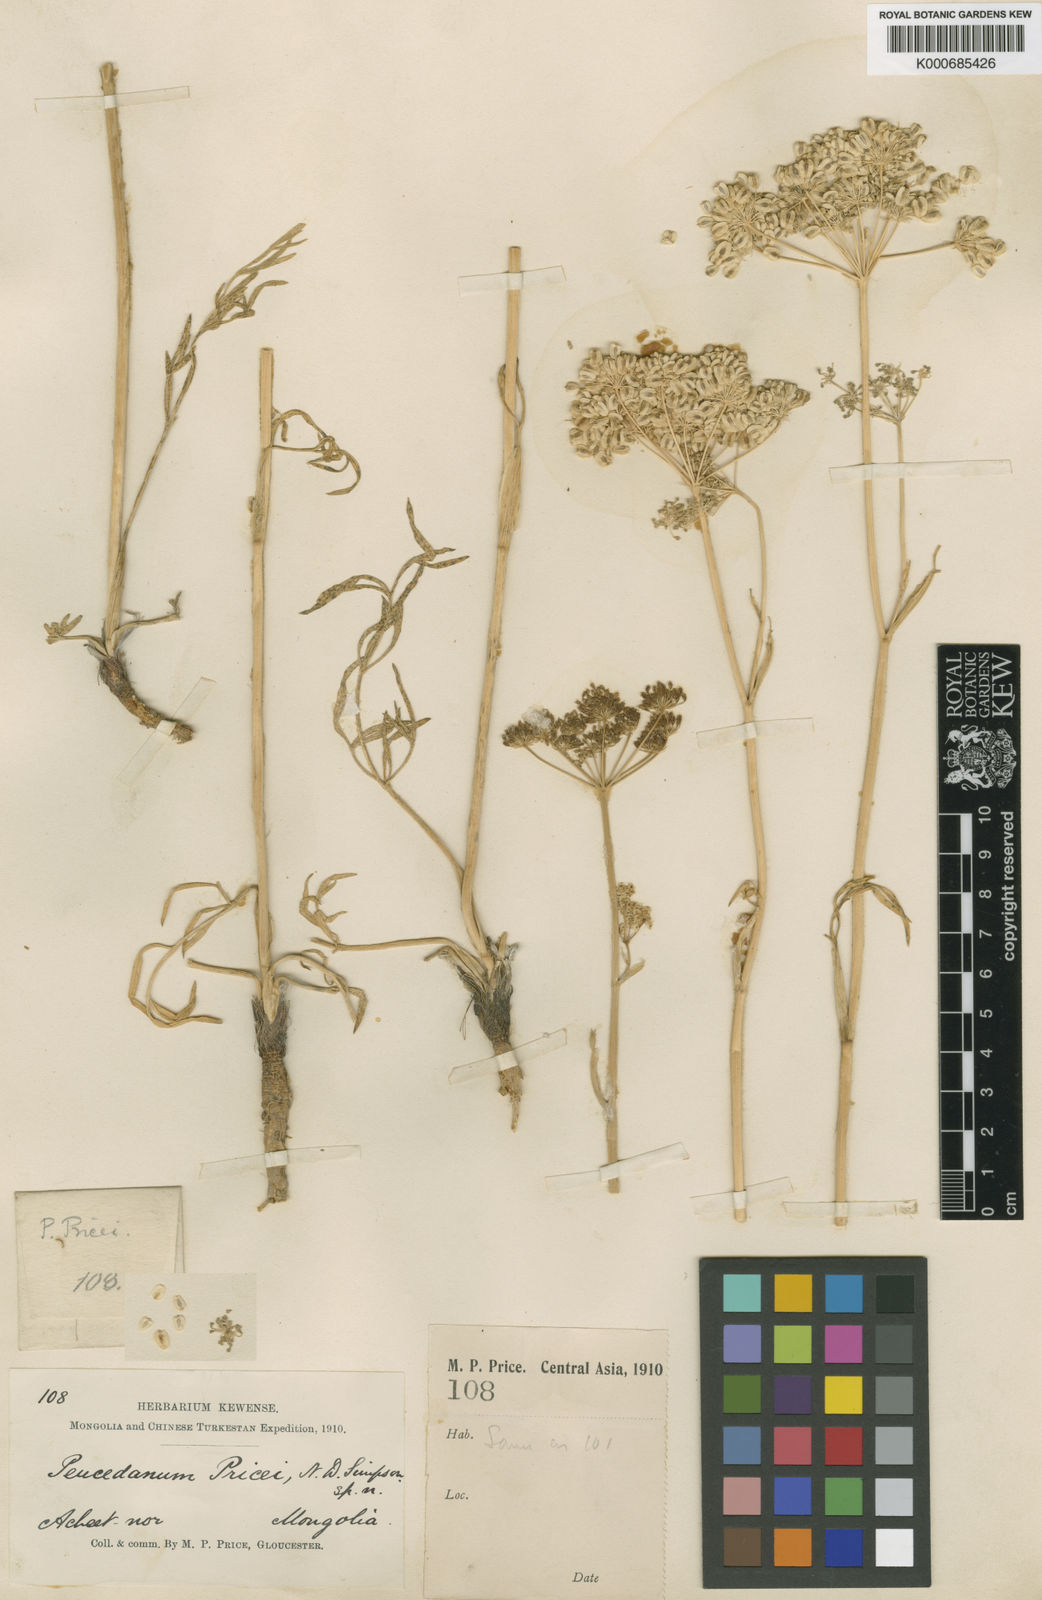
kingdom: Plantae
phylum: Tracheophyta
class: Magnoliopsida
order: Apiales
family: Apiaceae
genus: Haloselinum
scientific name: Haloselinum falcaria
